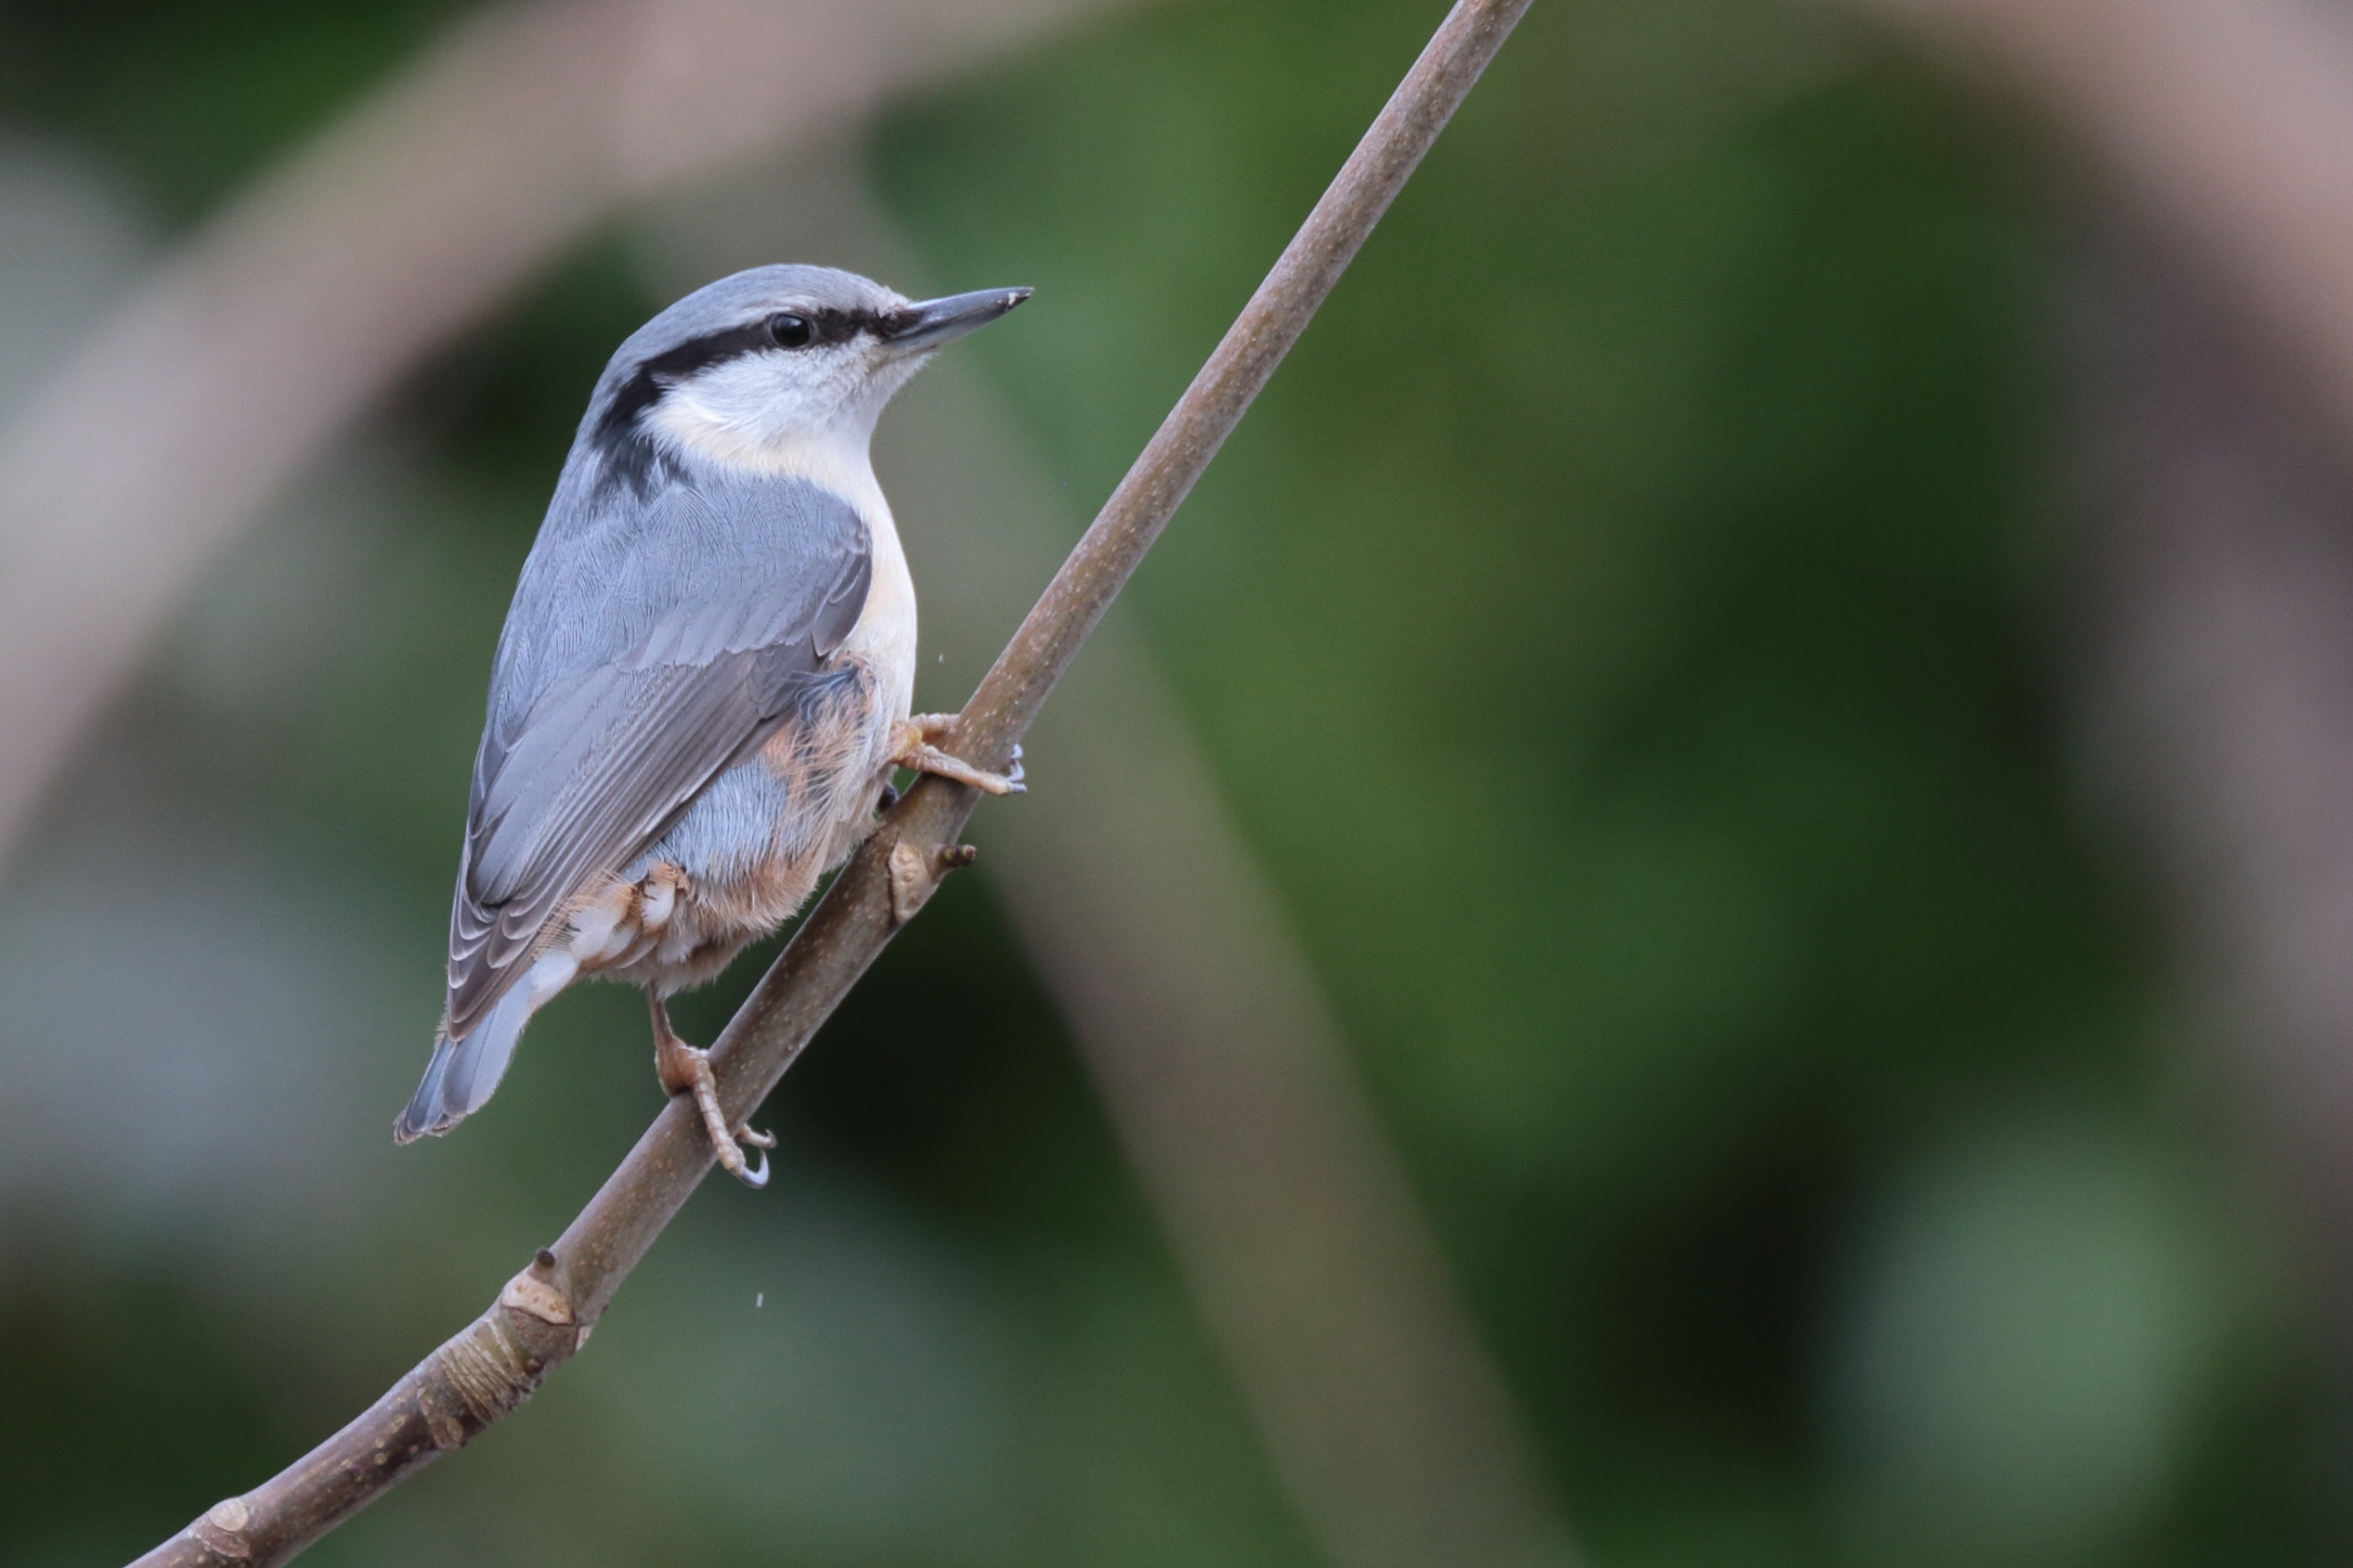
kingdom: Animalia
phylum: Chordata
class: Aves
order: Passeriformes
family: Sittidae
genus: Sitta
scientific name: Sitta europaea
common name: Lysbuget spætmejse
